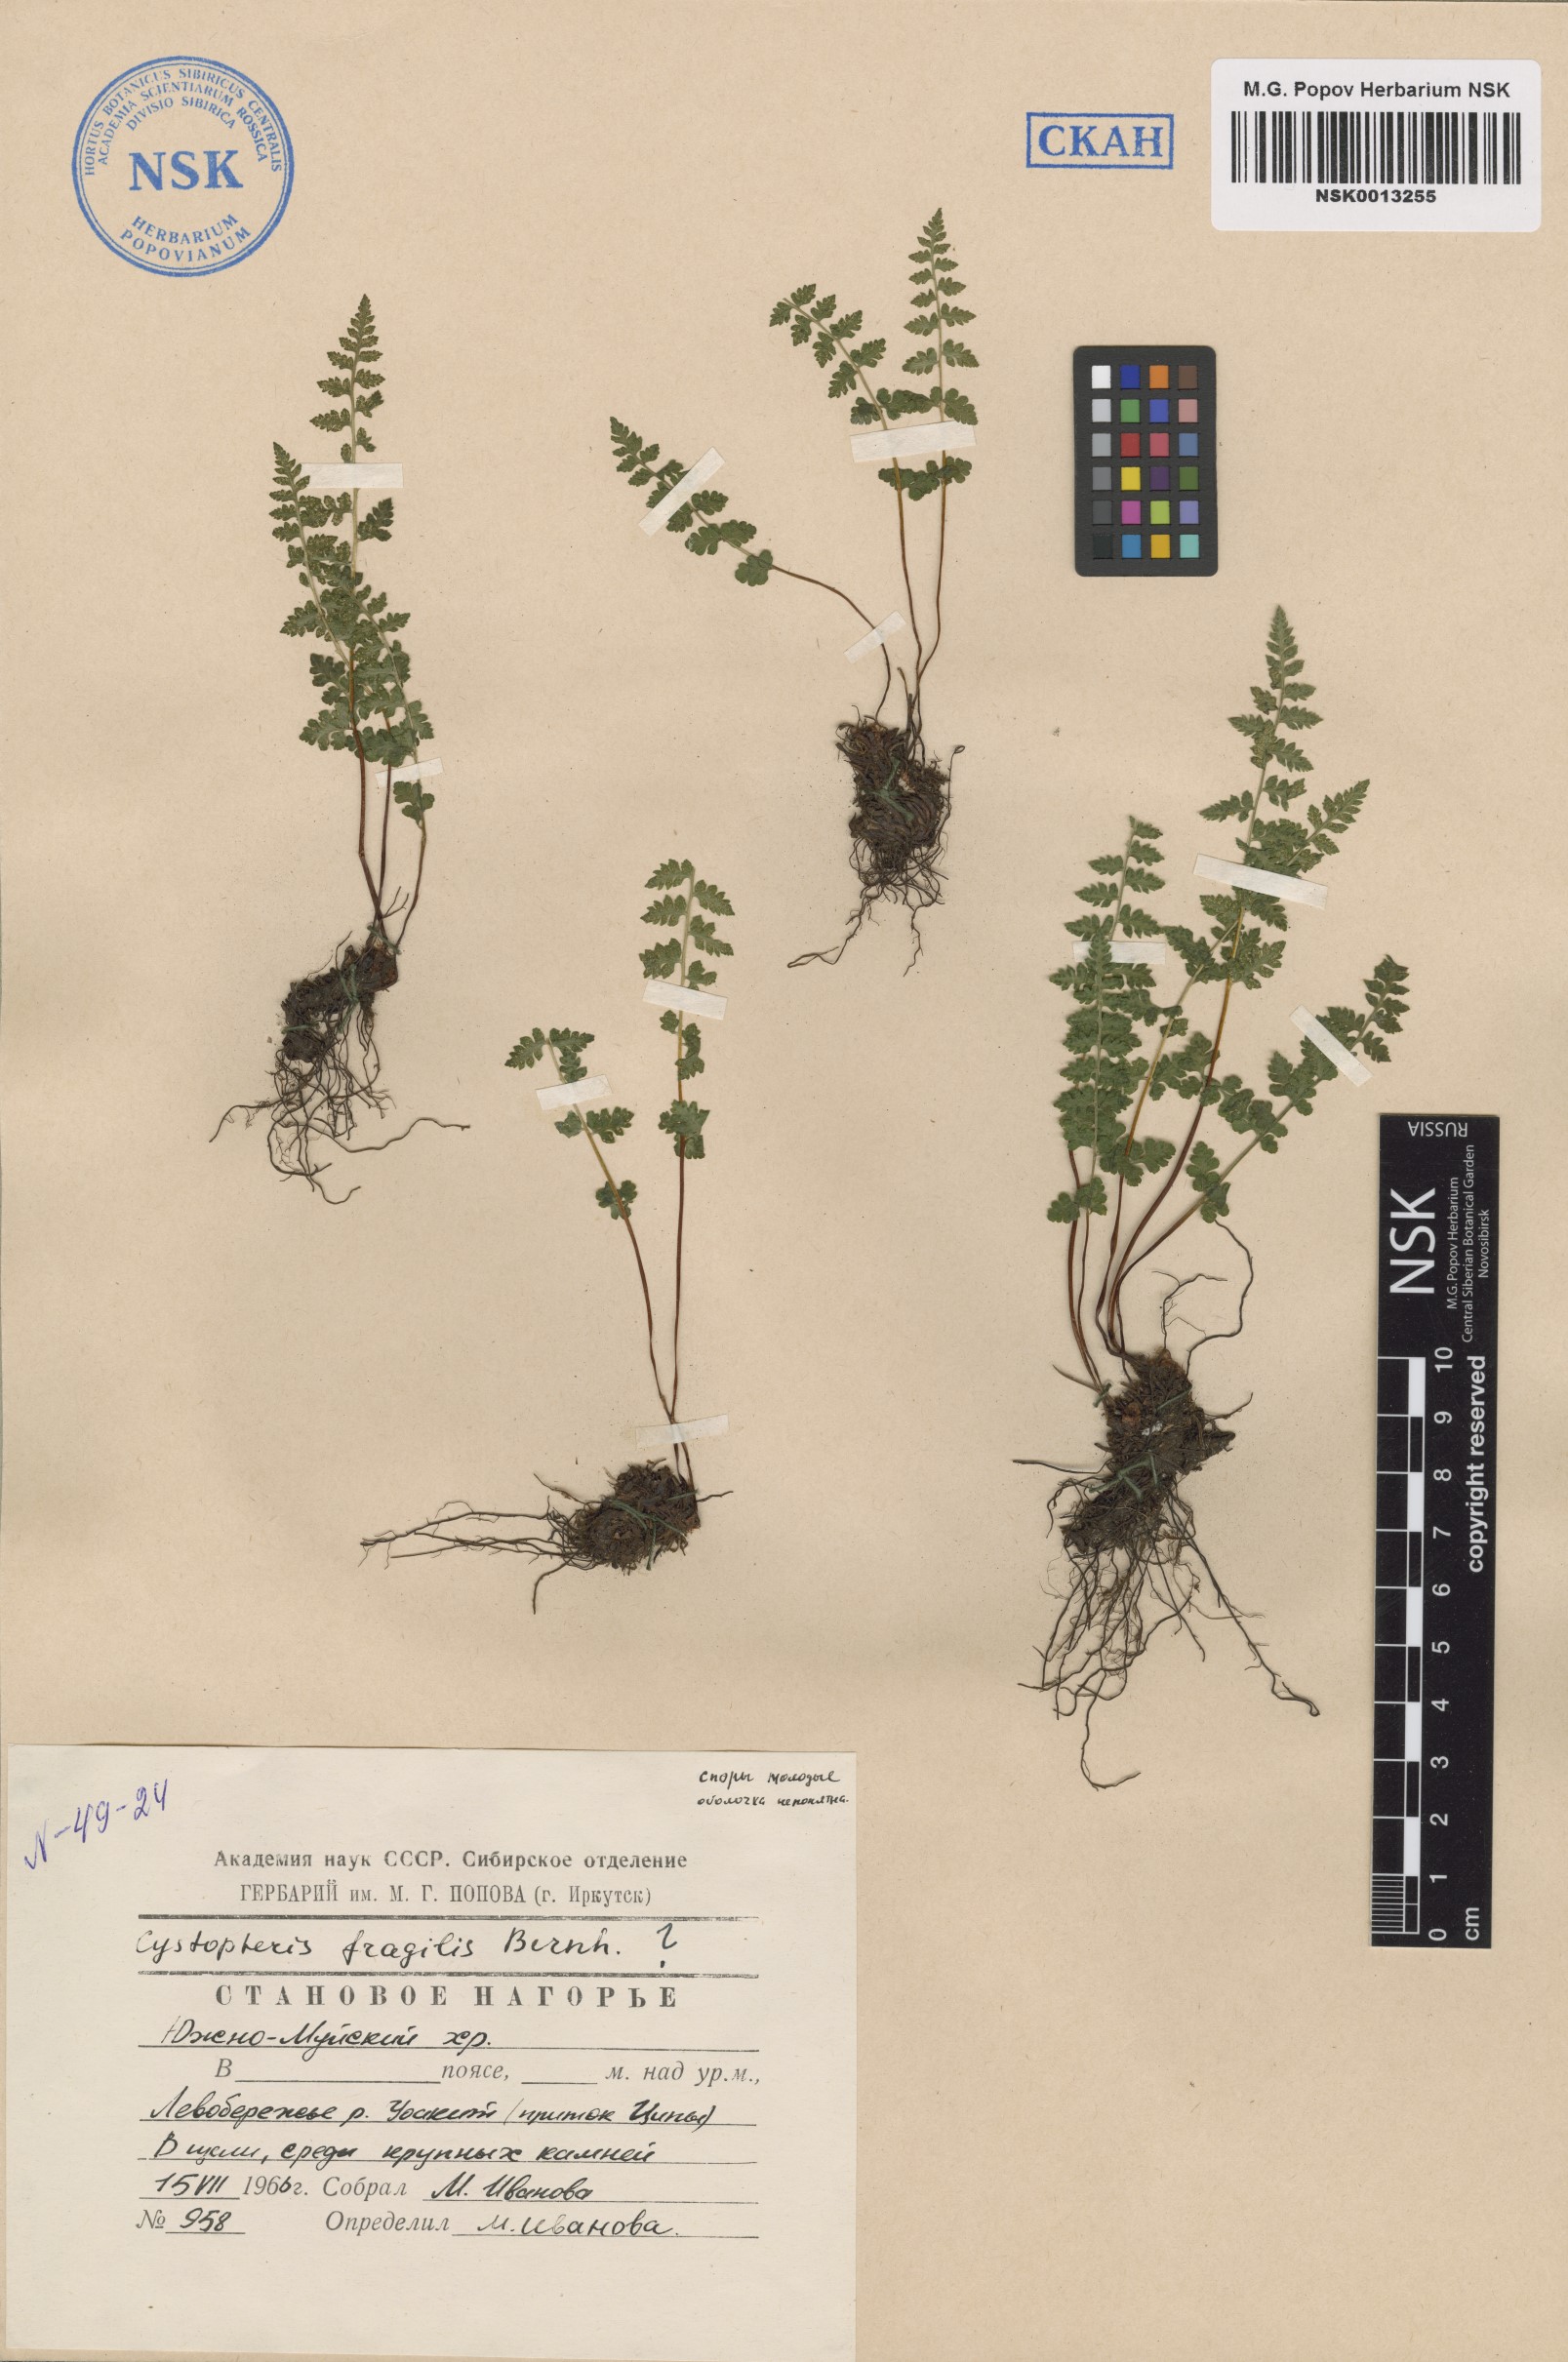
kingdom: Plantae
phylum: Tracheophyta
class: Polypodiopsida
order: Polypodiales
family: Cystopteridaceae
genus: Cystopteris
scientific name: Cystopteris fragilis
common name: Brittle bladder fern
